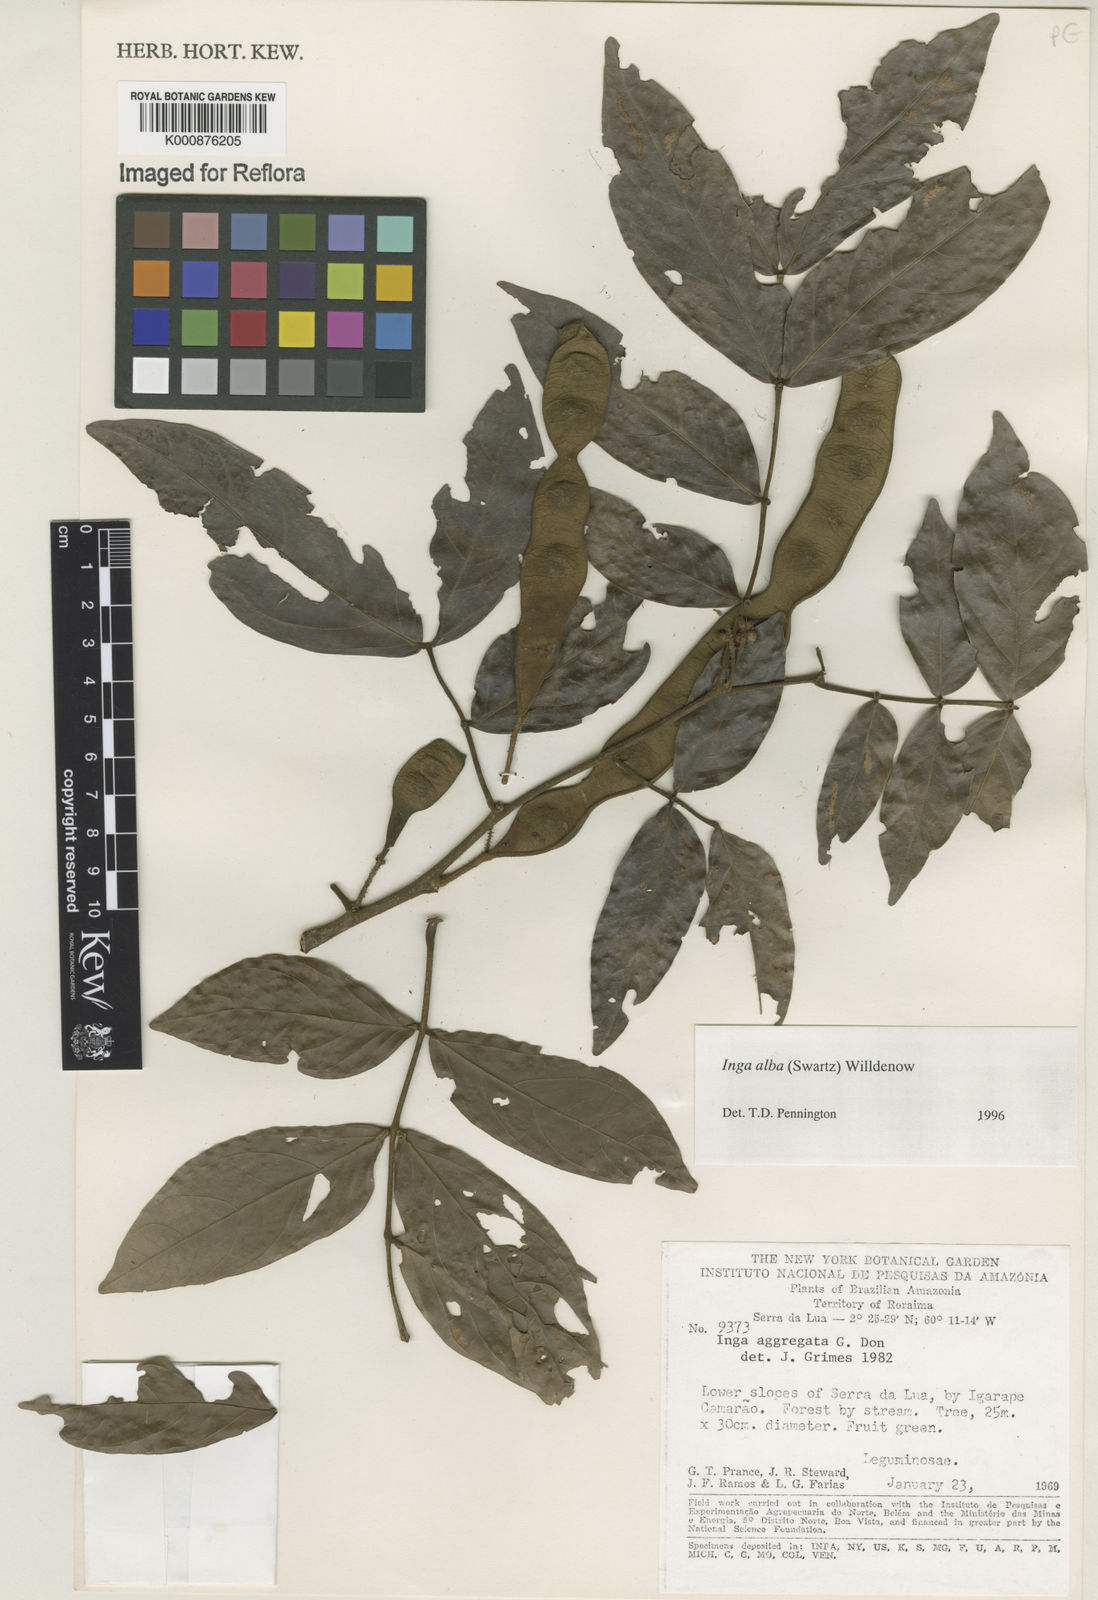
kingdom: Plantae
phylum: Tracheophyta
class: Magnoliopsida
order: Fabales
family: Fabaceae
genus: Inga
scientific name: Inga alba
